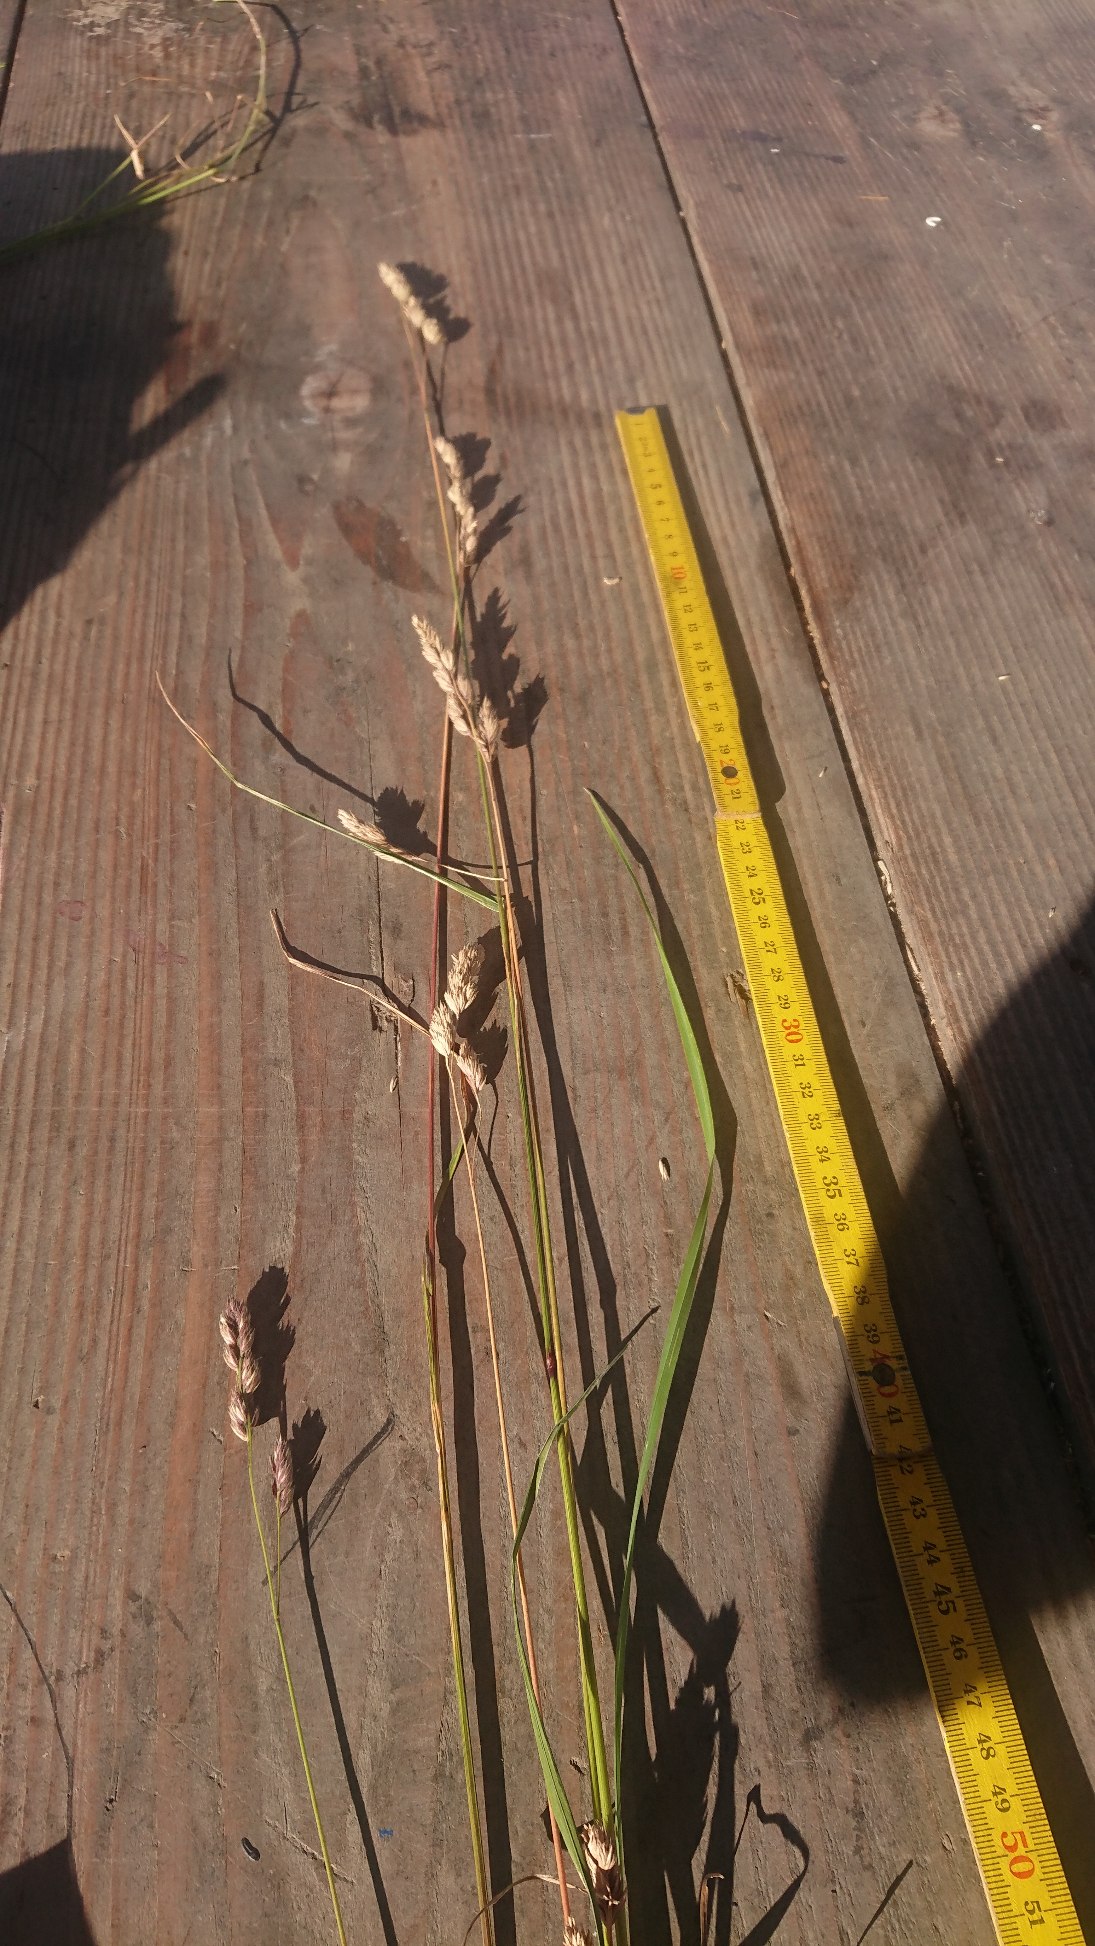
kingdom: Plantae
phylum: Tracheophyta
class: Liliopsida
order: Poales
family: Poaceae
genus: Dactylis
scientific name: Dactylis glomerata
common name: Almindelig hundegræs
